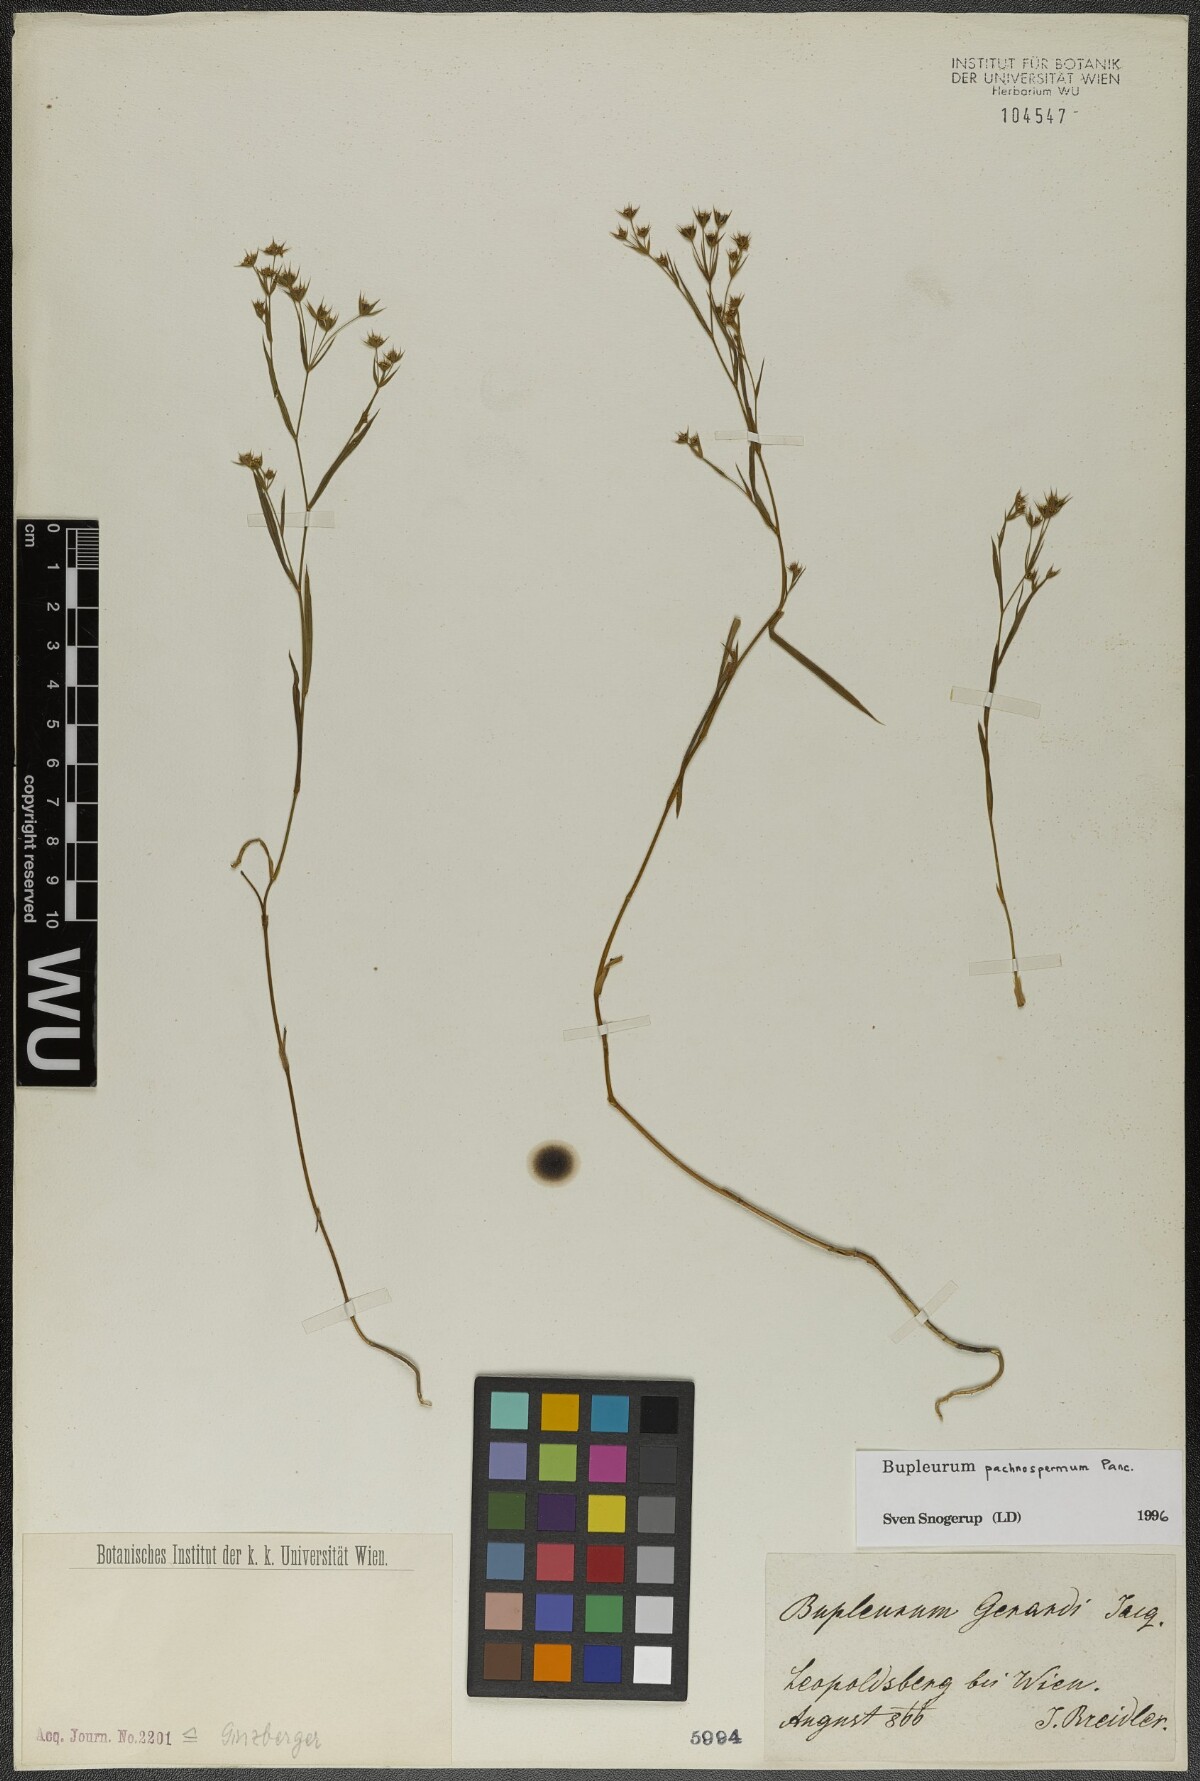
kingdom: Plantae
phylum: Tracheophyta
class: Magnoliopsida
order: Apiales
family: Apiaceae
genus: Bupleurum
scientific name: Bupleurum pachnospermum
